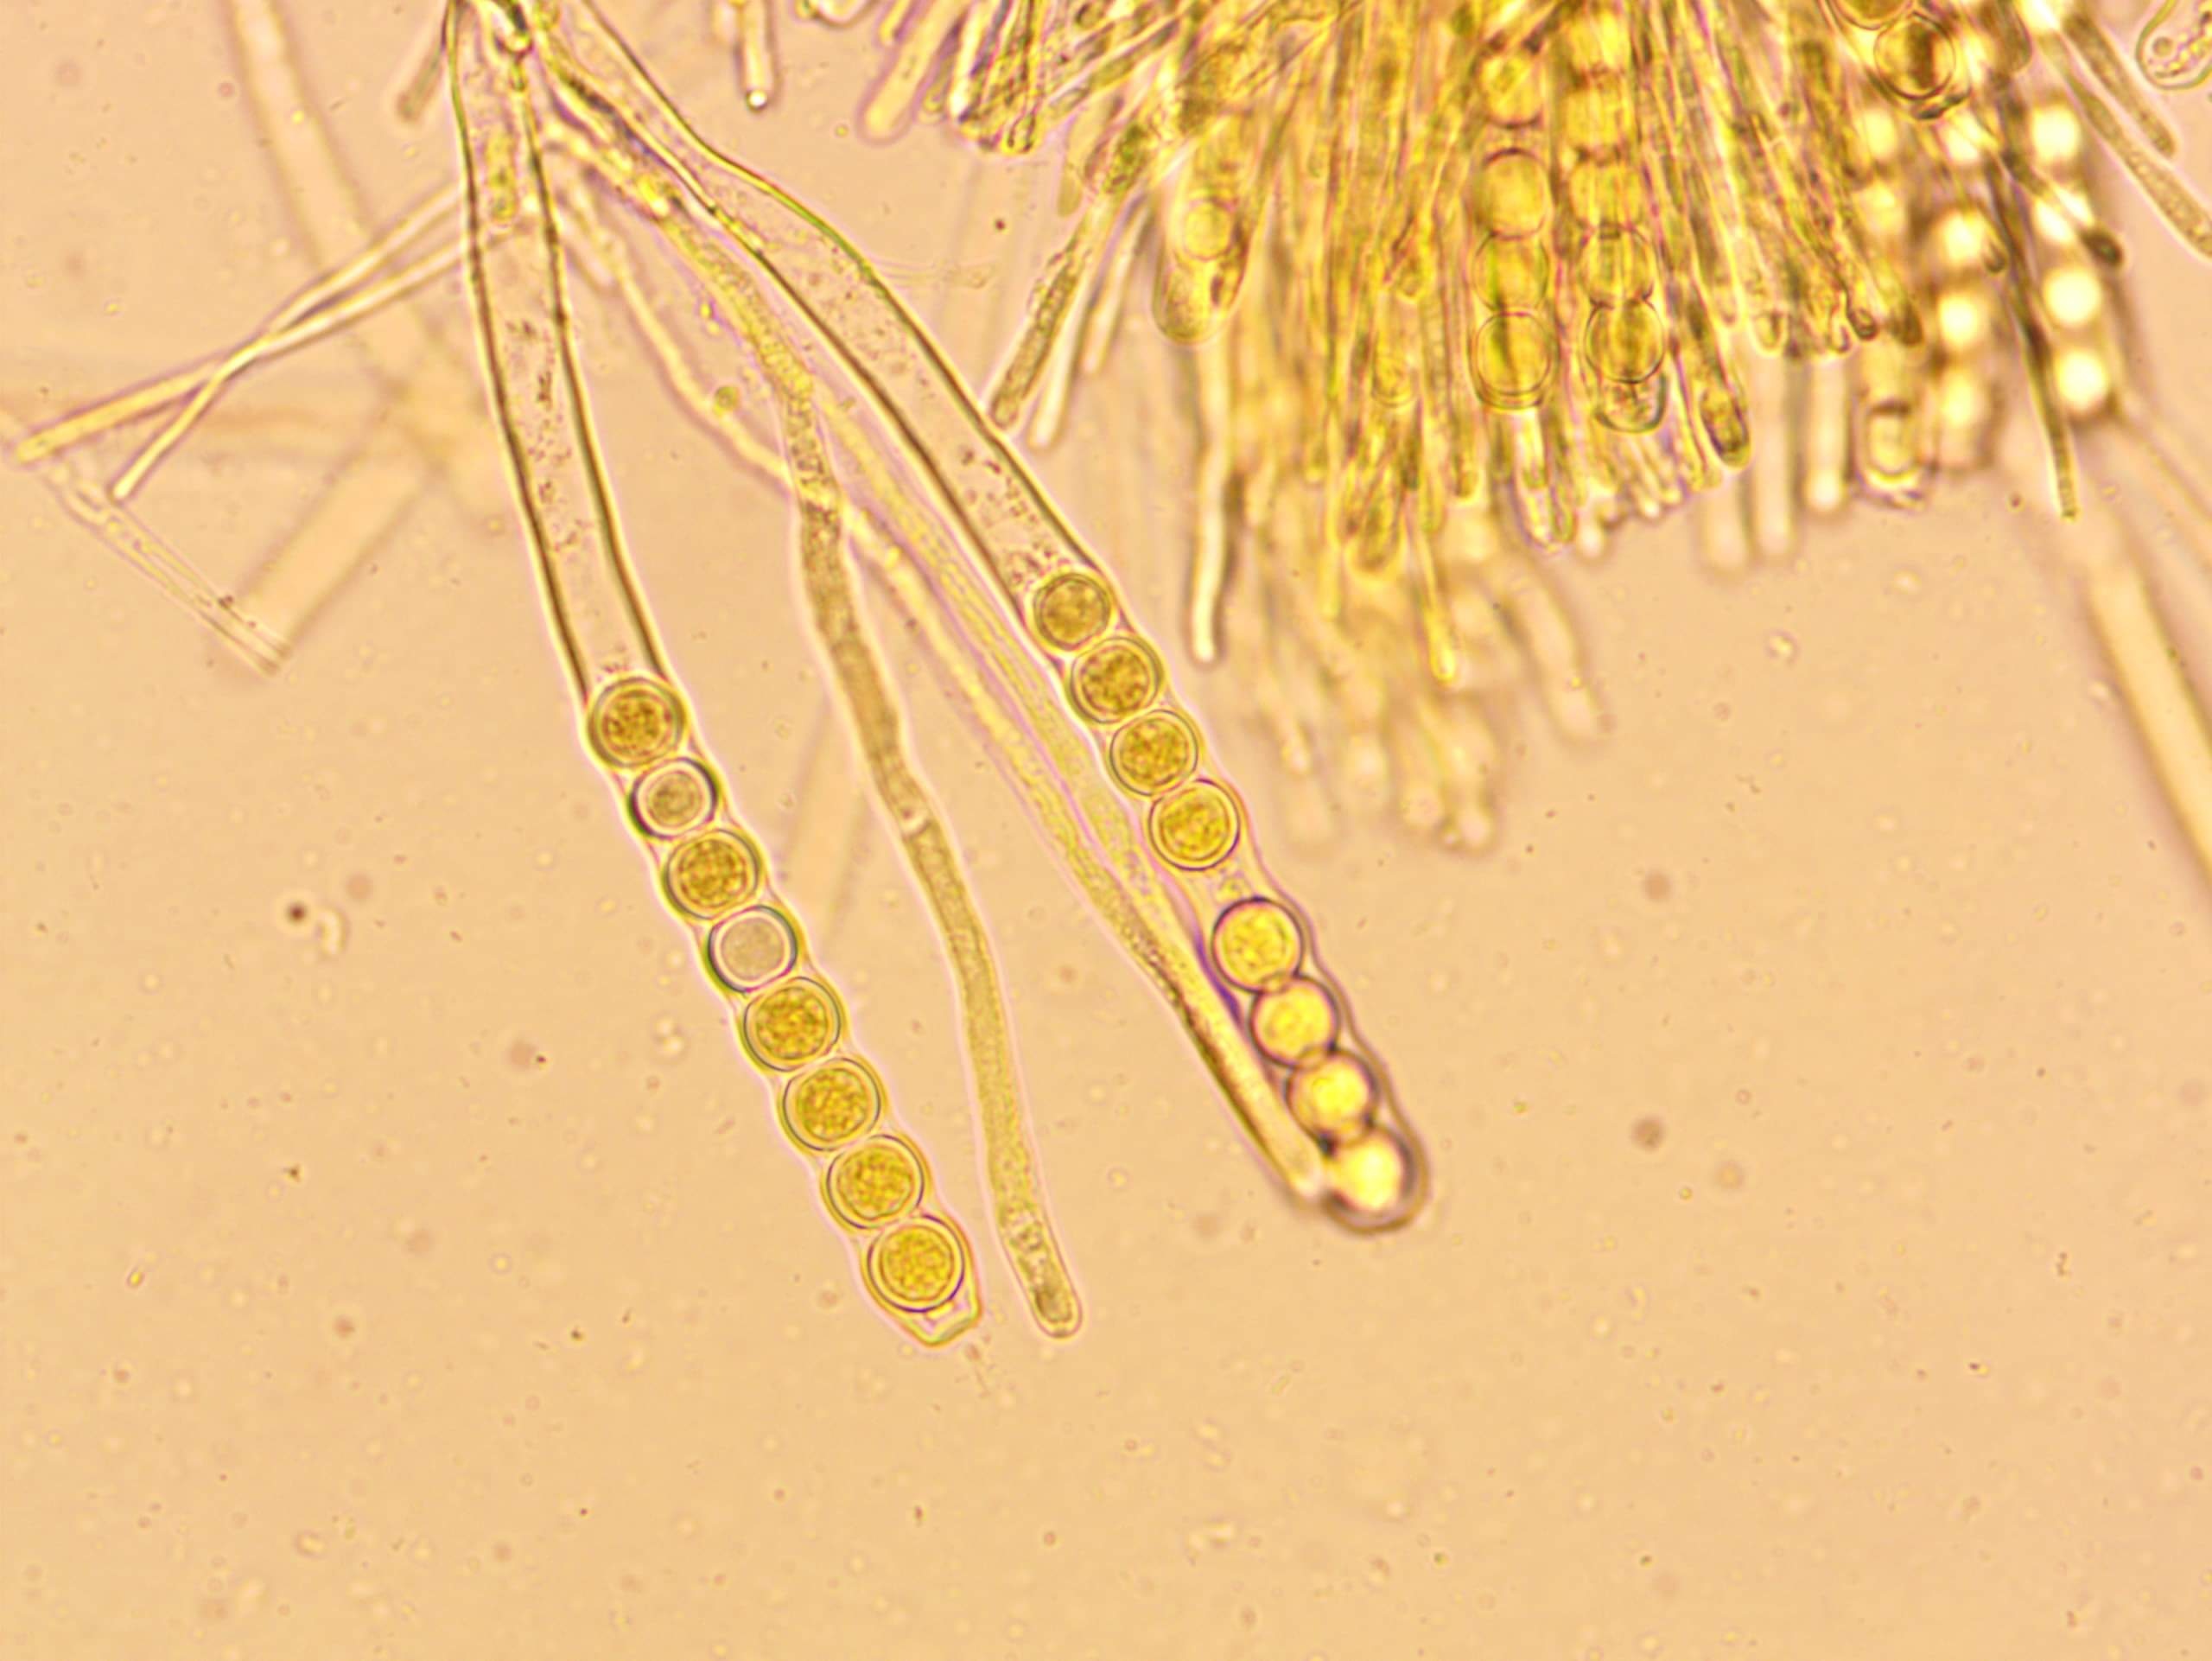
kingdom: Fungi
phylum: Ascomycota
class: Pezizomycetes
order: Pezizales
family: Sarcoscyphaceae
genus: Pithya
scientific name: Pithya vulgaris
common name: stor dukatbæger
